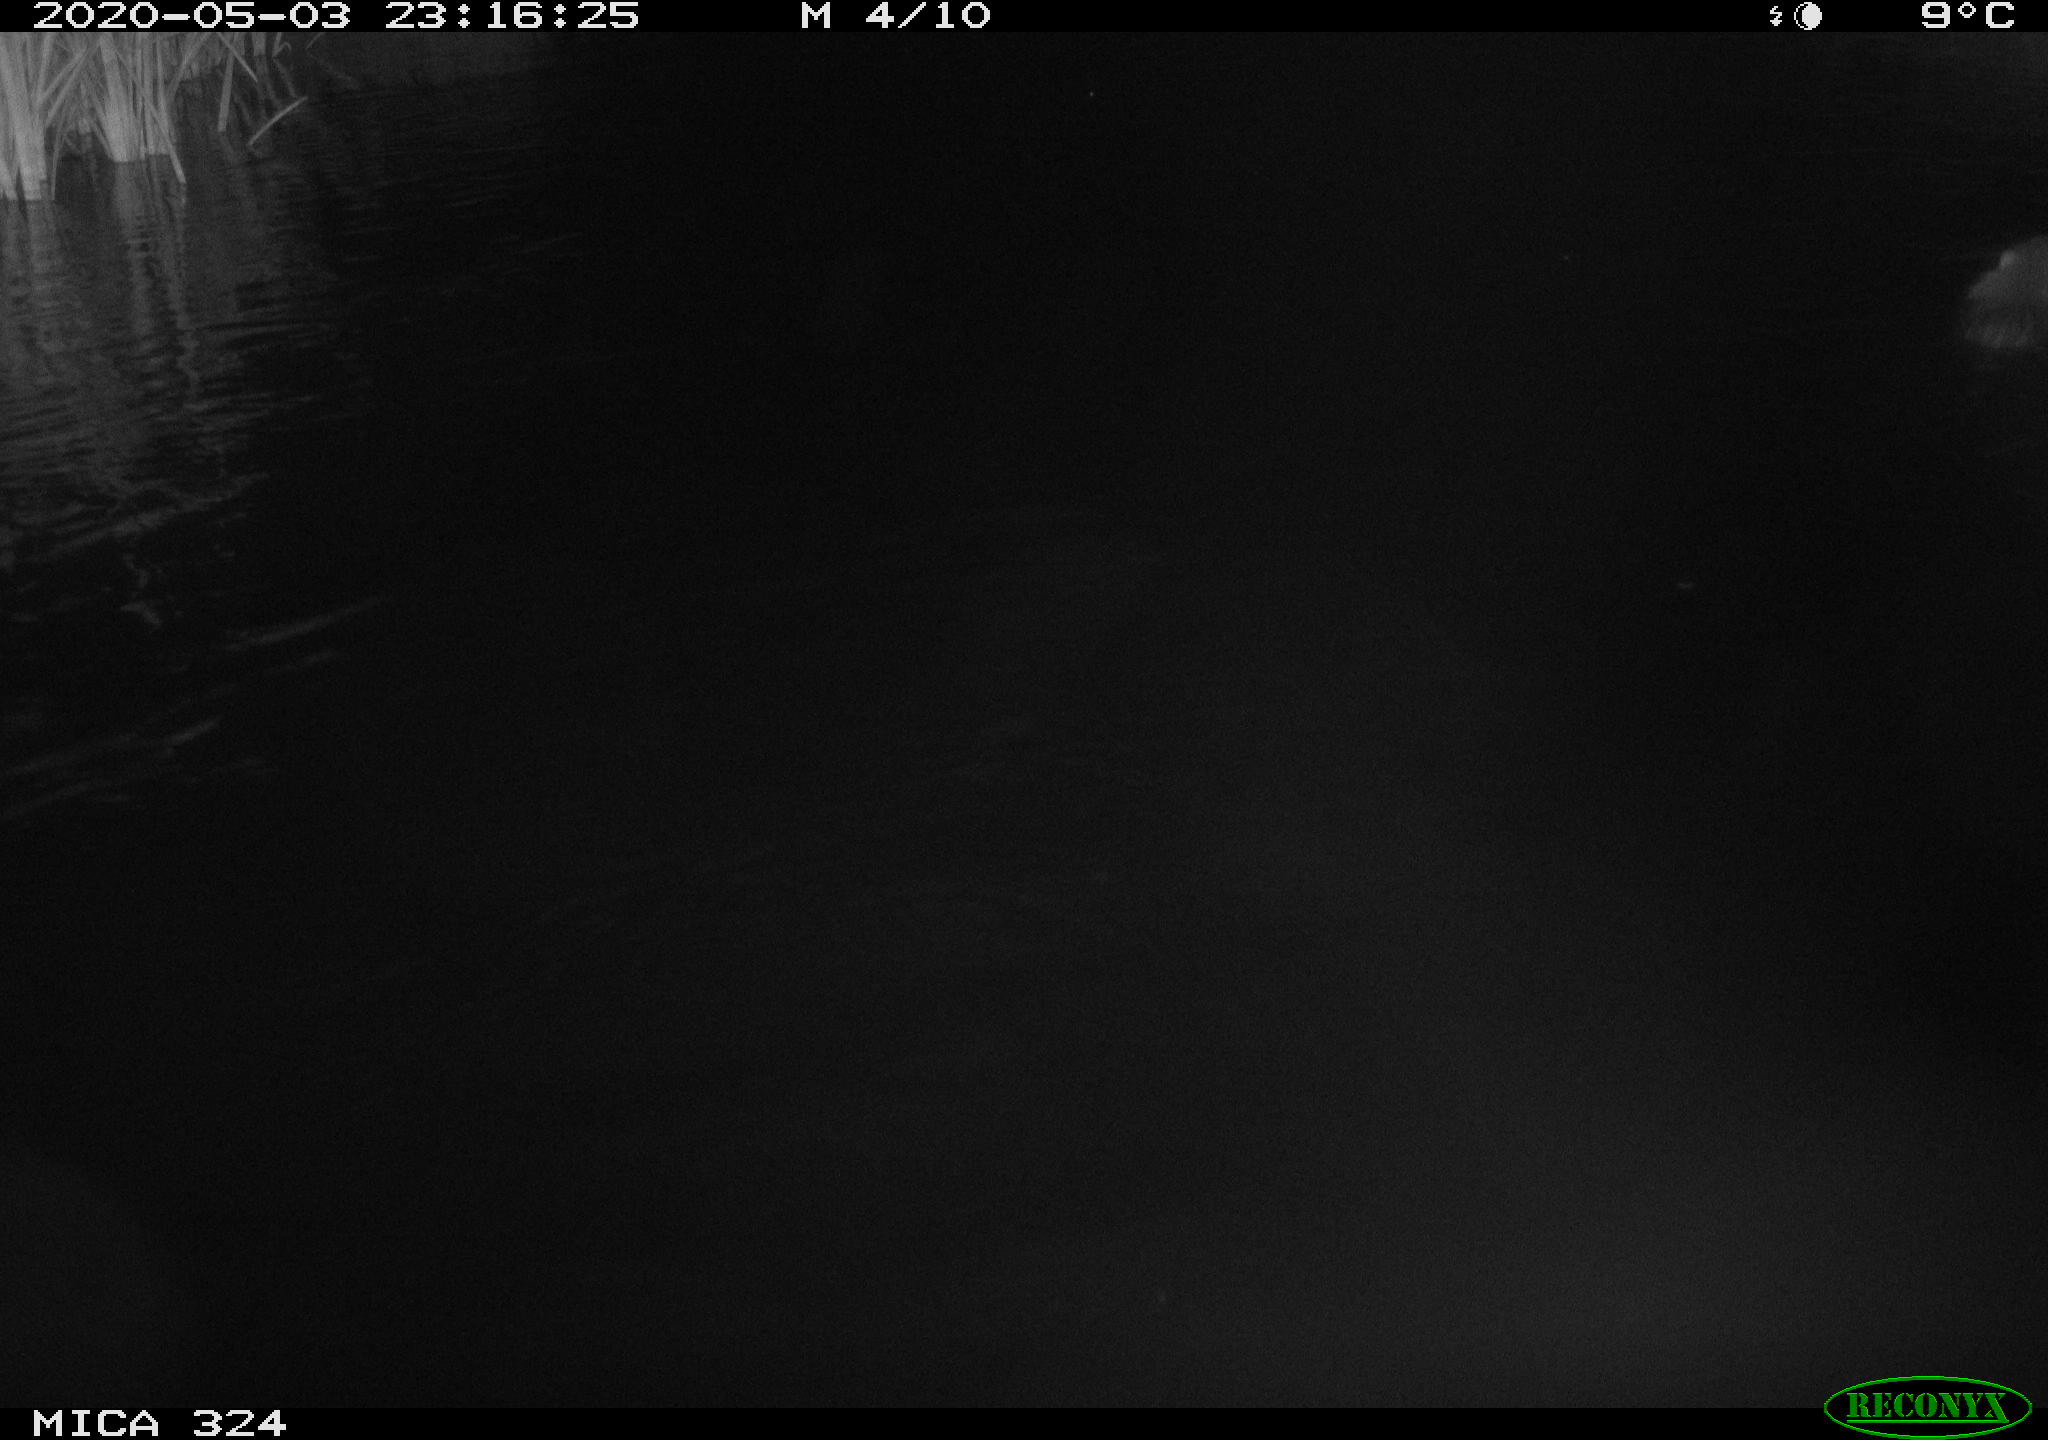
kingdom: Animalia
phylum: Chordata
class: Mammalia
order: Rodentia
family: Myocastoridae
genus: Myocastor
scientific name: Myocastor coypus
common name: Coypu
